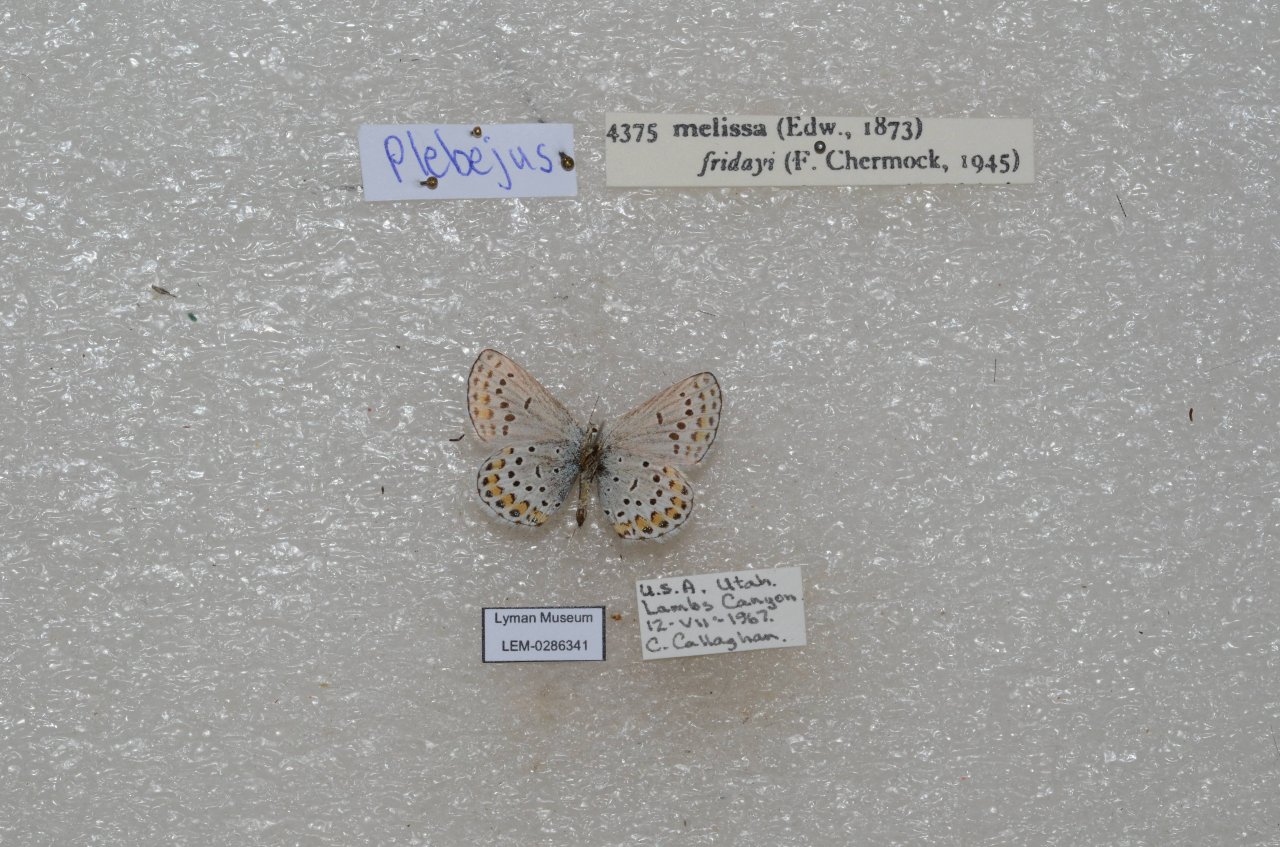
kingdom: Animalia
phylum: Arthropoda
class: Insecta
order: Lepidoptera
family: Lycaenidae
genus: Lycaeides
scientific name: Lycaeides melissa
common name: Melissa Blue
